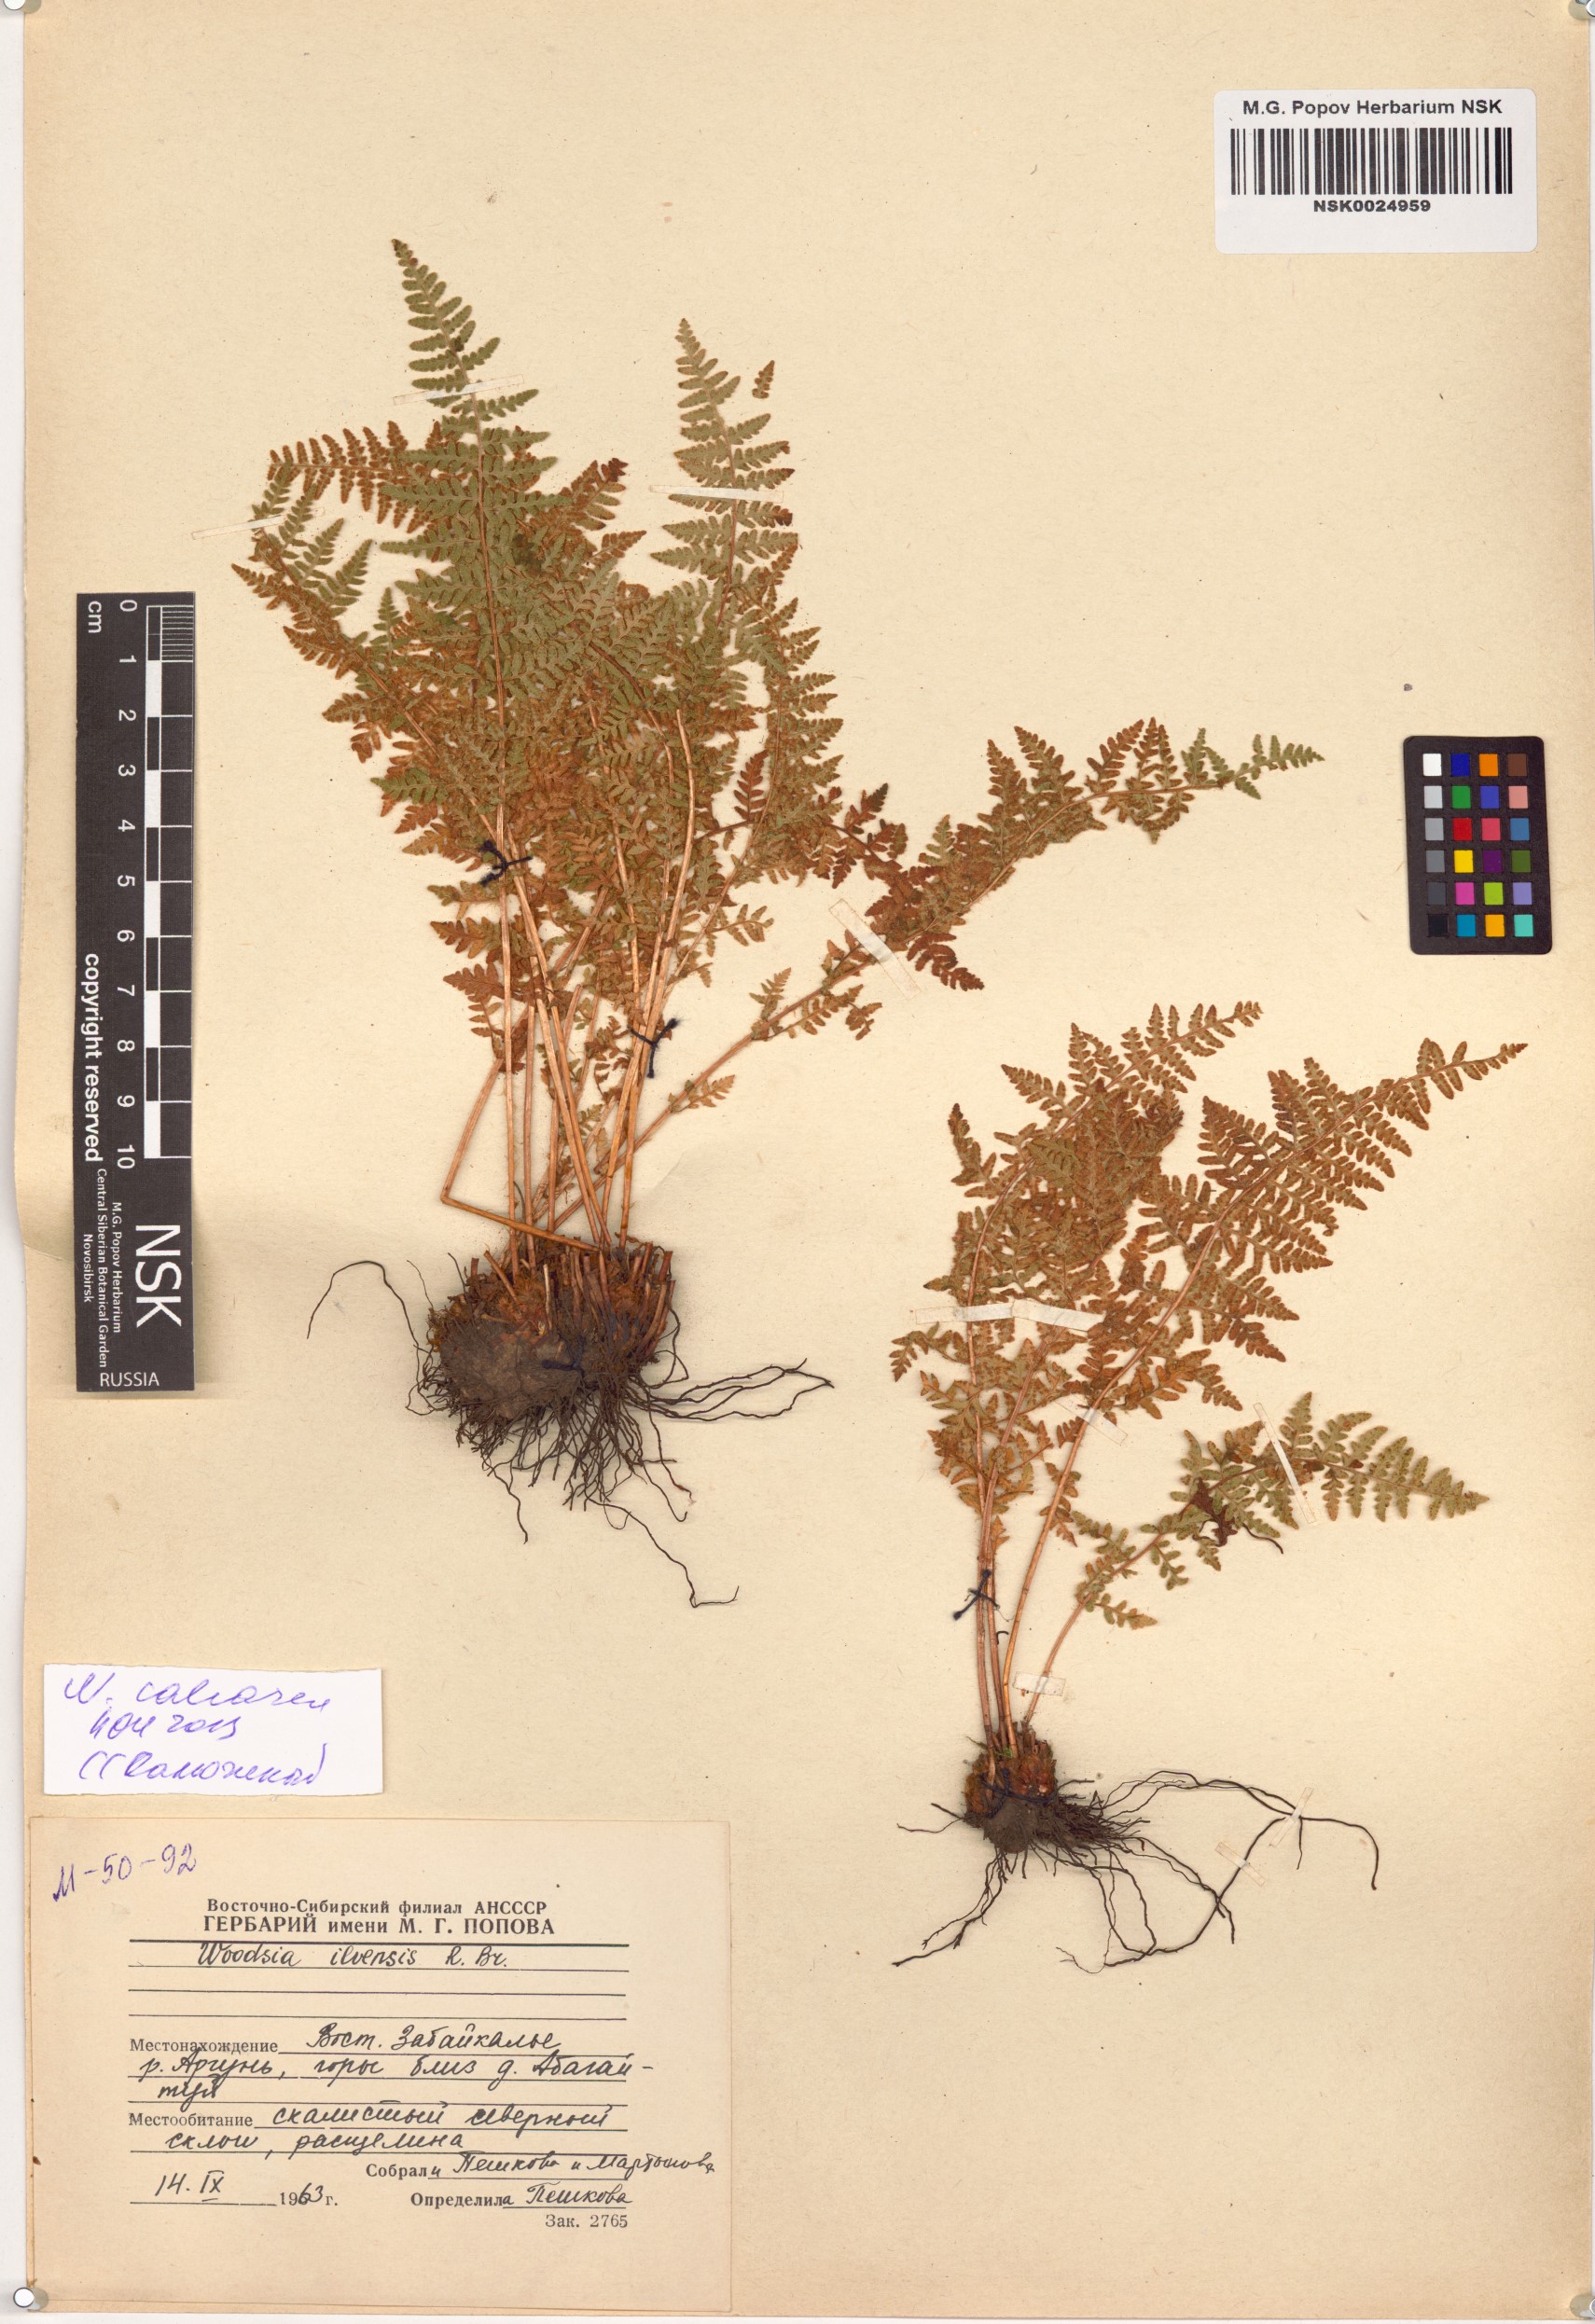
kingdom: Plantae
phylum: Tracheophyta
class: Polypodiopsida
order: Polypodiales
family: Woodsiaceae
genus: Woodsia
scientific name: Woodsia calcarea
